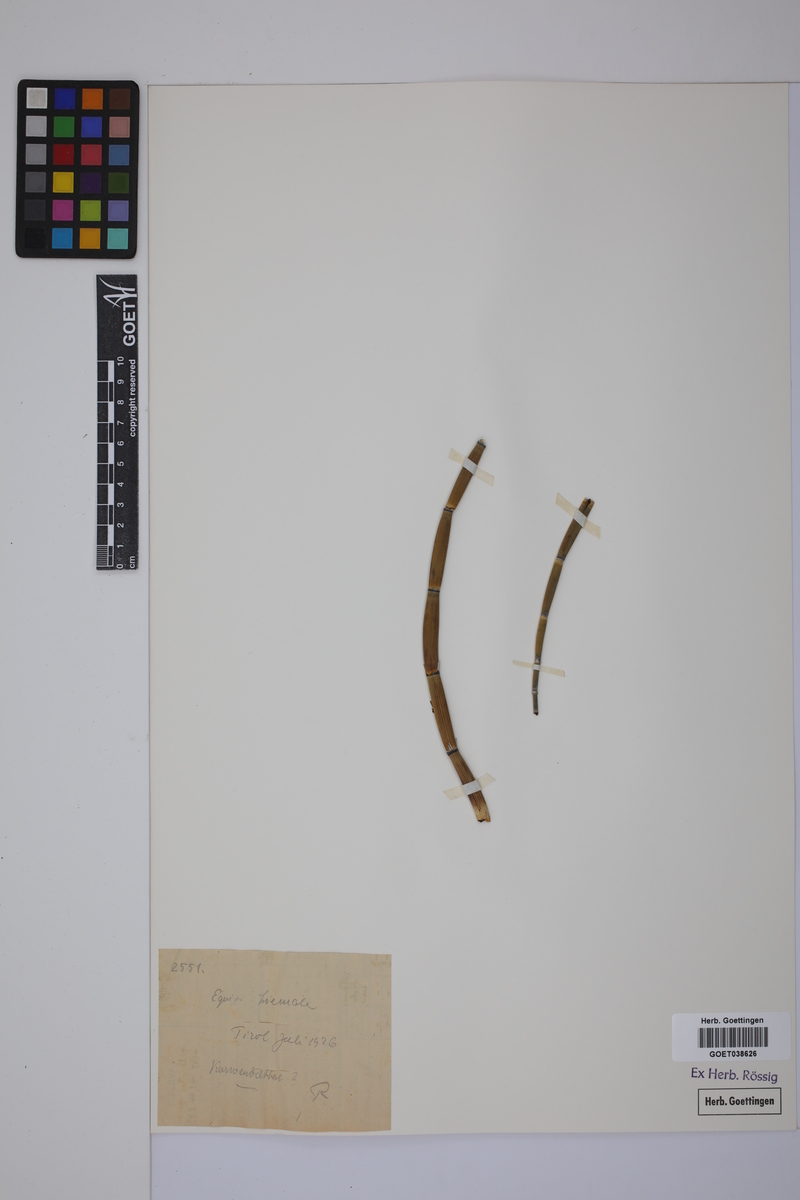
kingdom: Plantae
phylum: Tracheophyta
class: Polypodiopsida
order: Equisetales
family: Equisetaceae
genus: Equisetum
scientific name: Equisetum hyemale
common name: Rough horsetail
